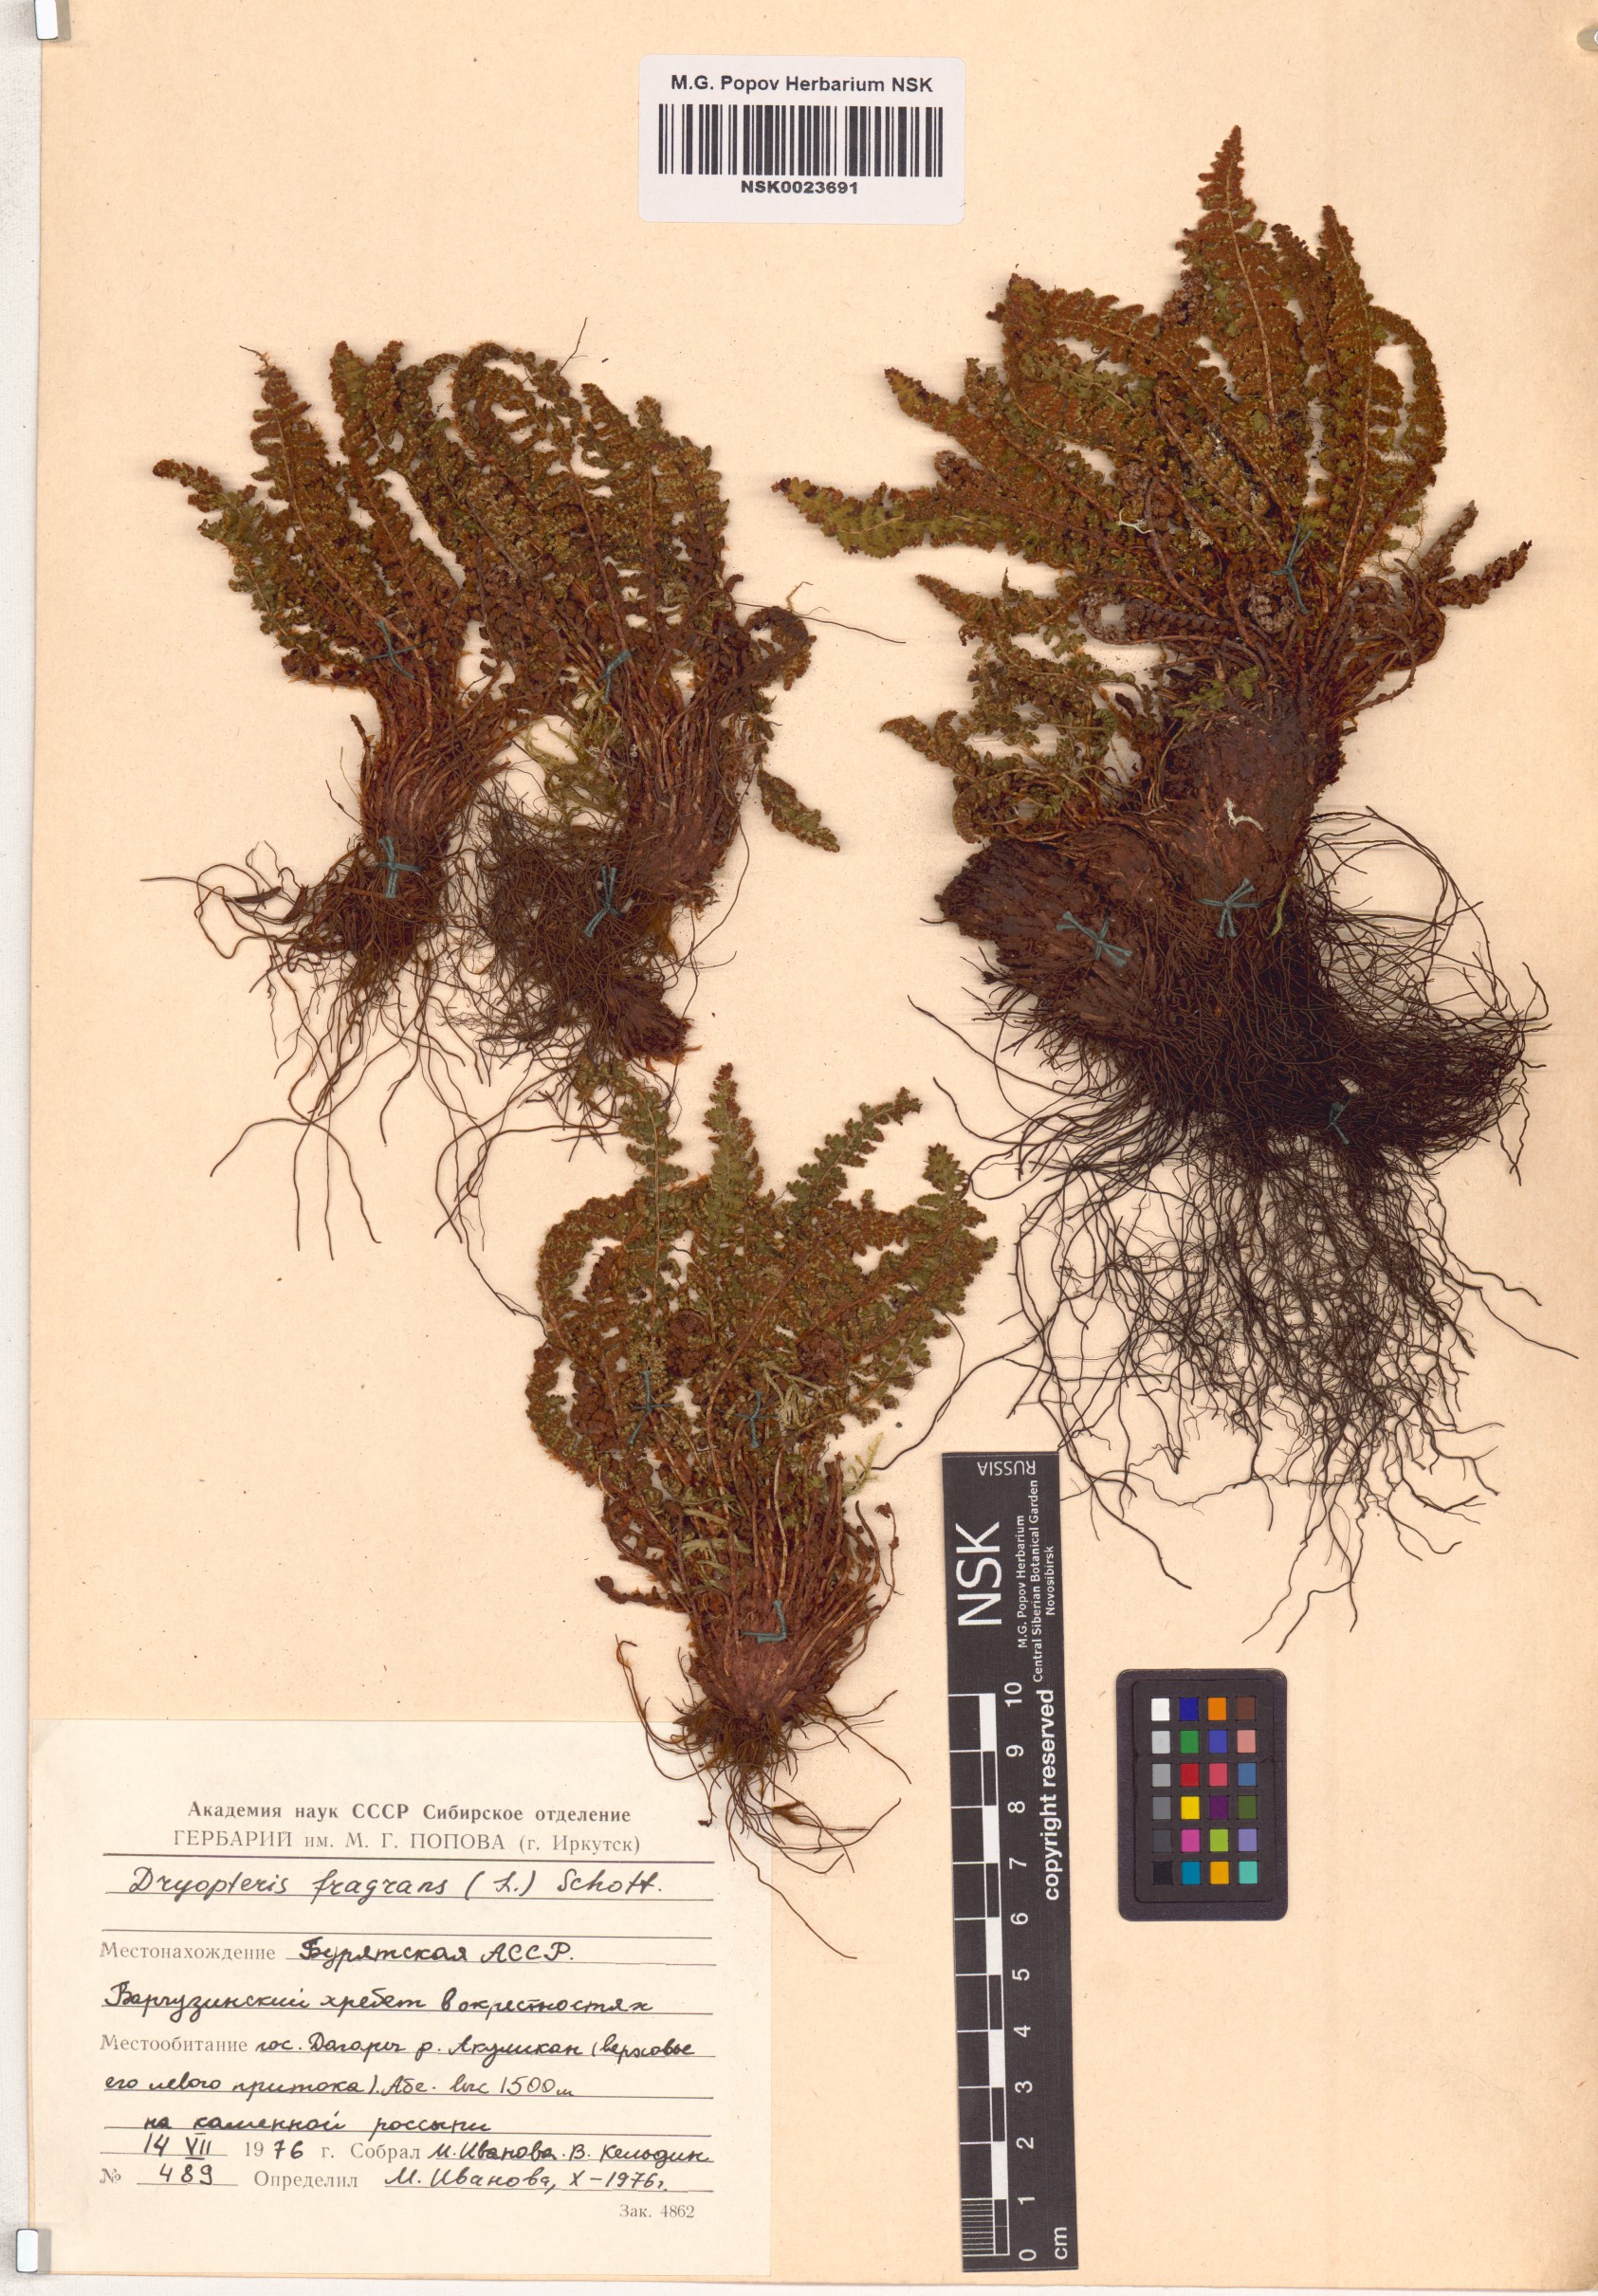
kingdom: Plantae
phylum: Tracheophyta
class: Polypodiopsida
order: Polypodiales
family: Dryopteridaceae
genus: Dryopteris
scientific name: Dryopteris fragrans
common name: Fragrant wood fern
